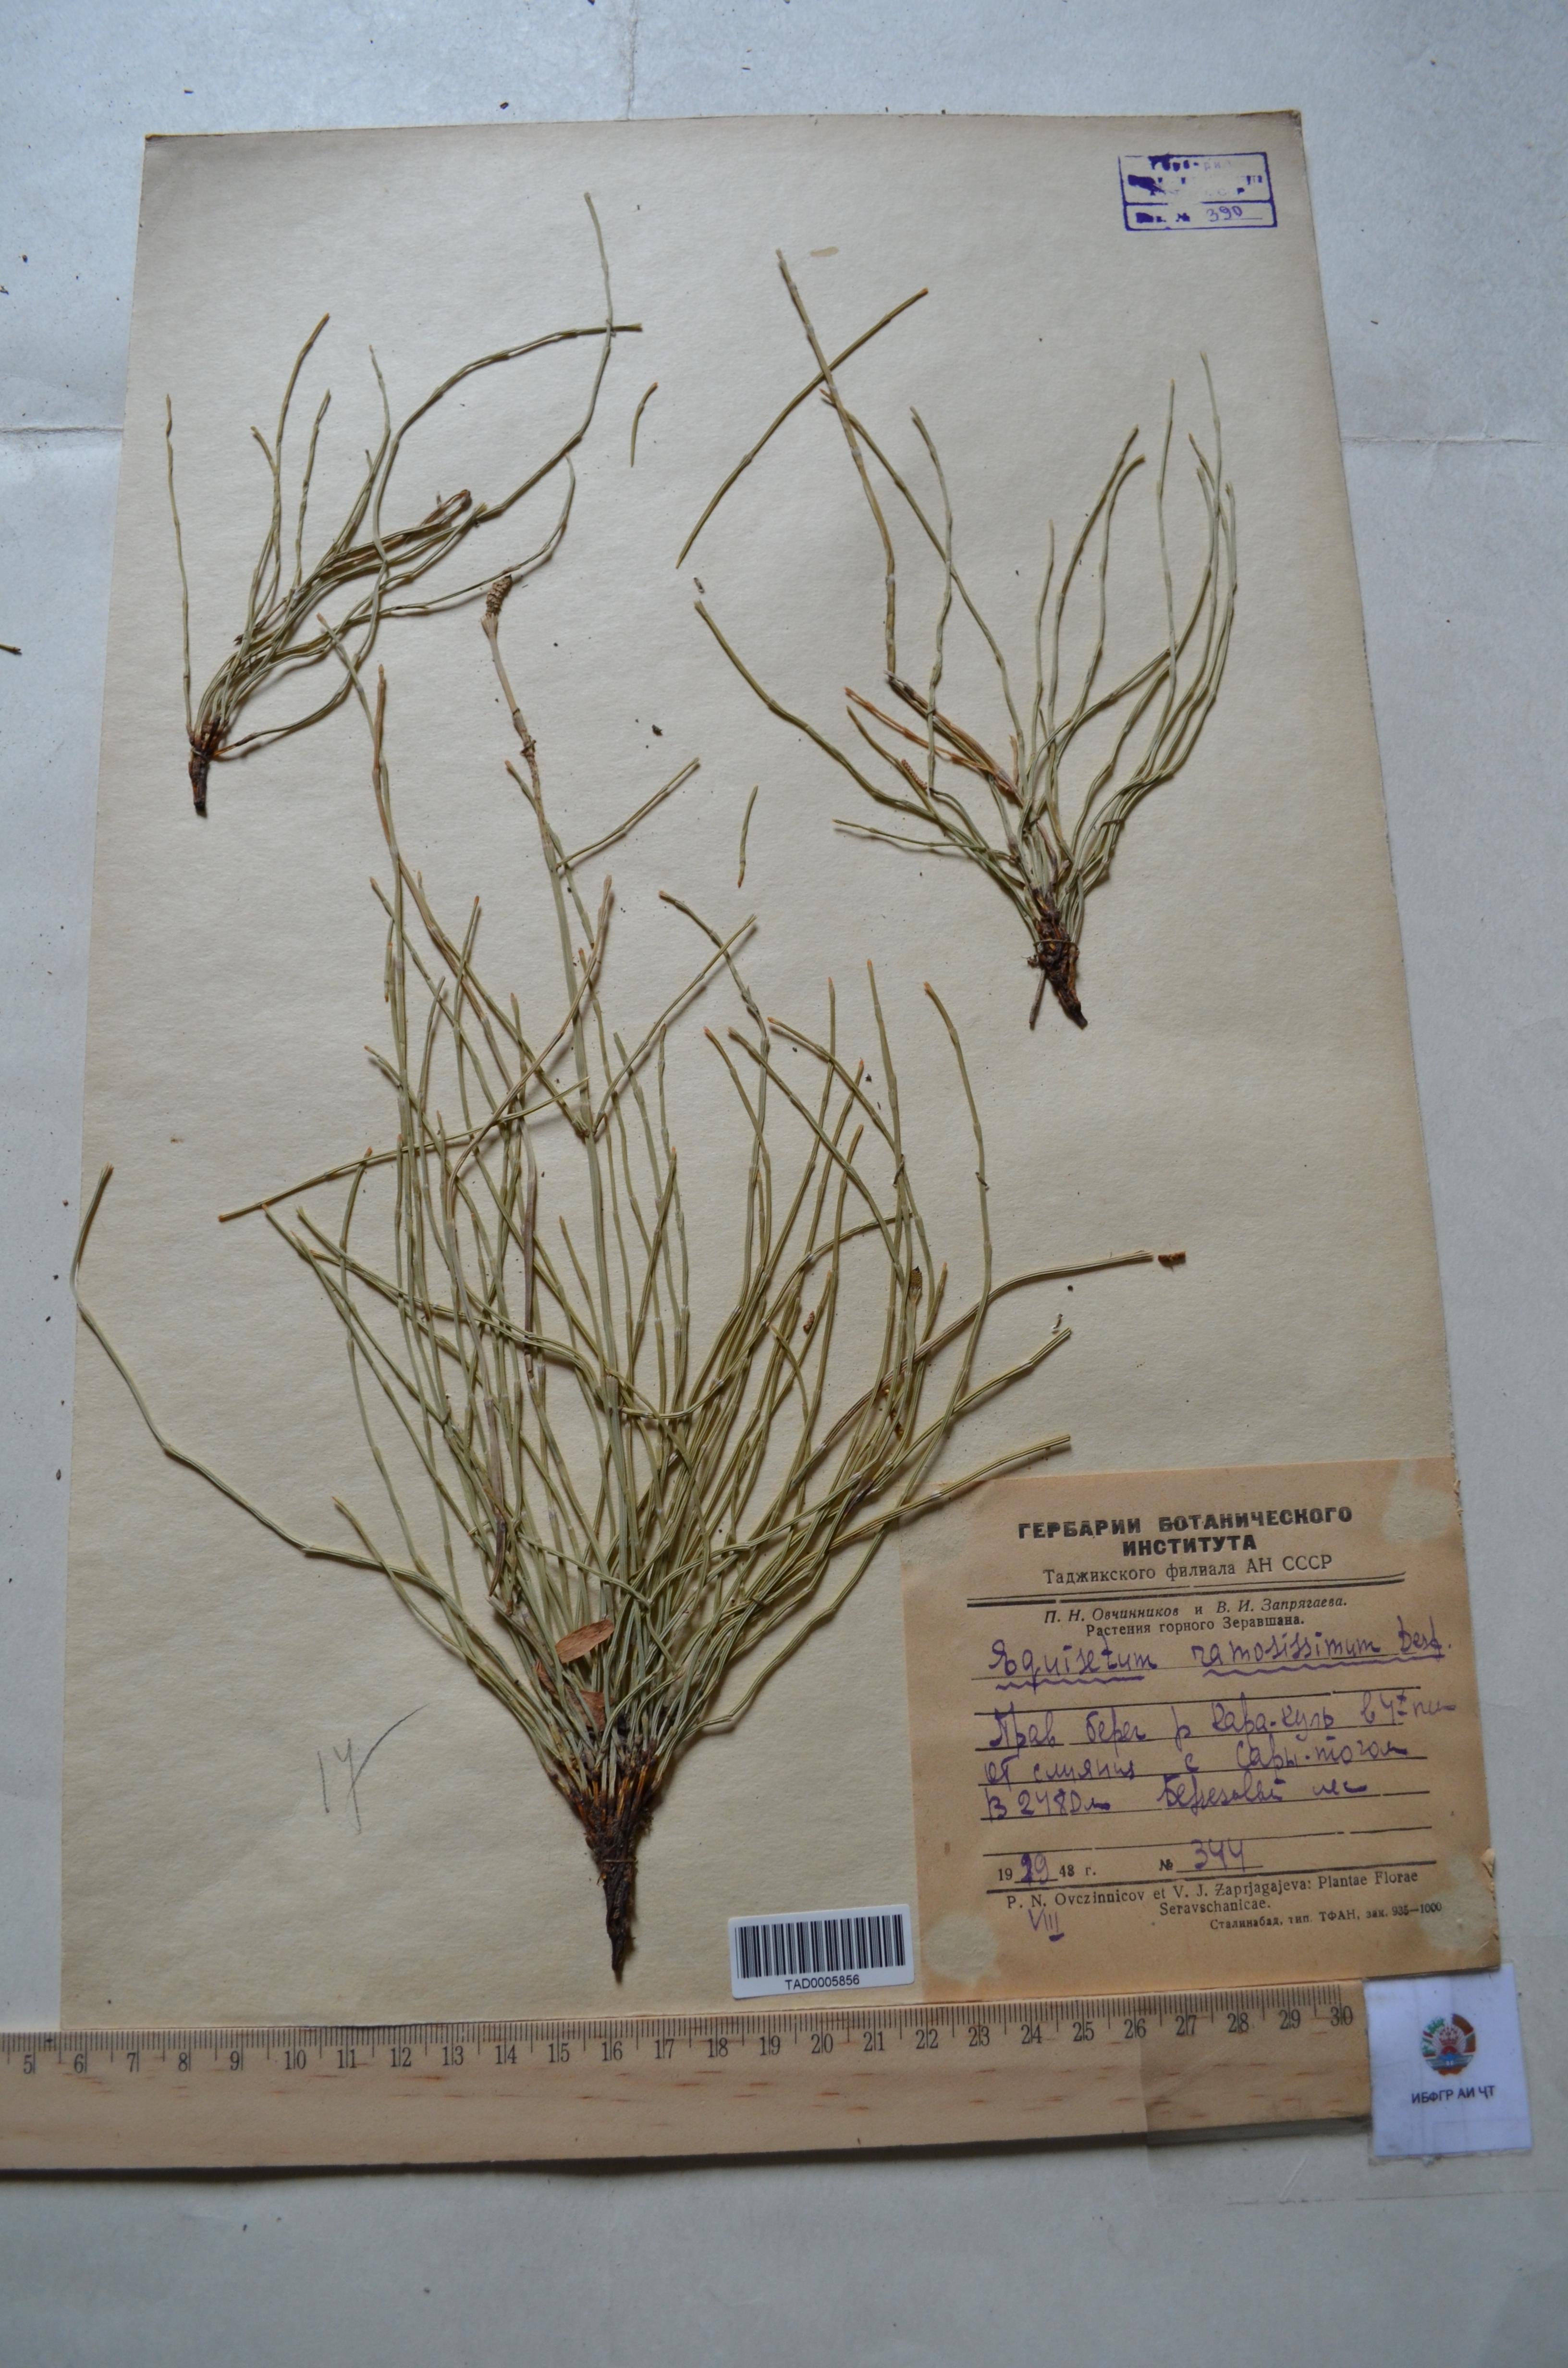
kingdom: Plantae
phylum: Tracheophyta
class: Polypodiopsida
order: Equisetales
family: Equisetaceae
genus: Equisetum
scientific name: Equisetum ramosissimum
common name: Branched horsetail
